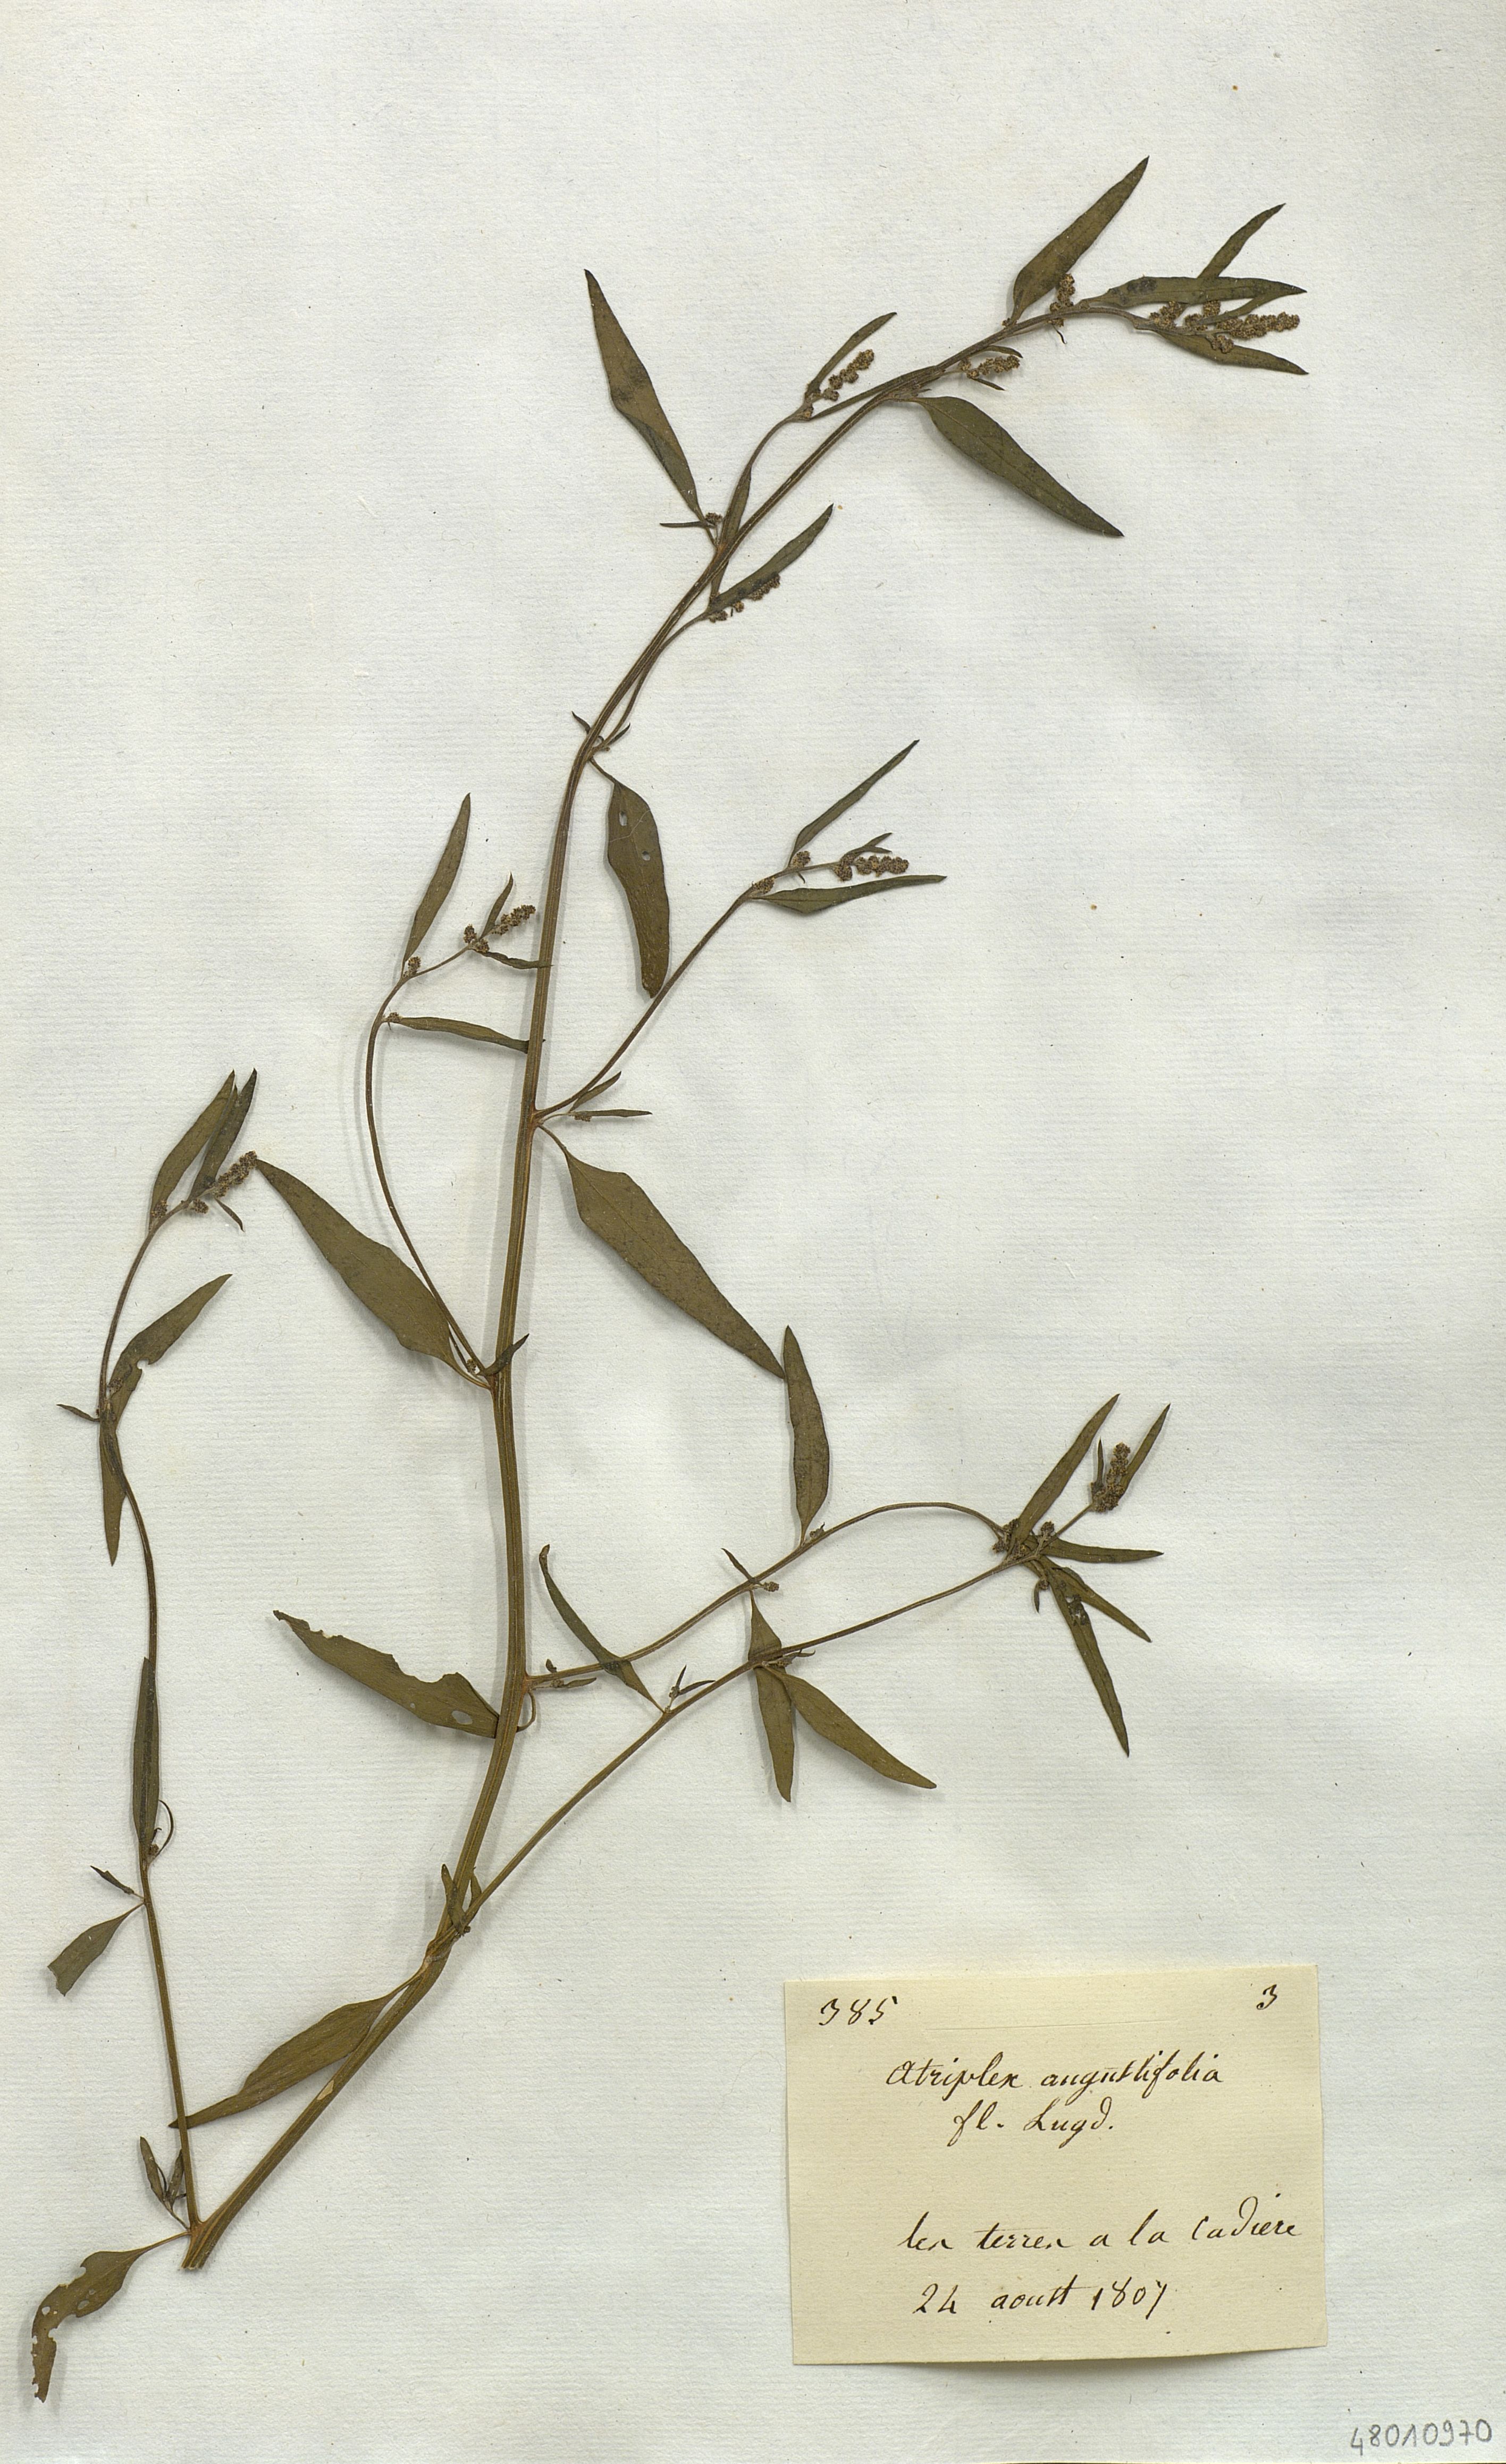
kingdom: Plantae
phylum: Tracheophyta
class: Magnoliopsida
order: Caryophyllales
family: Amaranthaceae
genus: Atriplex
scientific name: Atriplex
